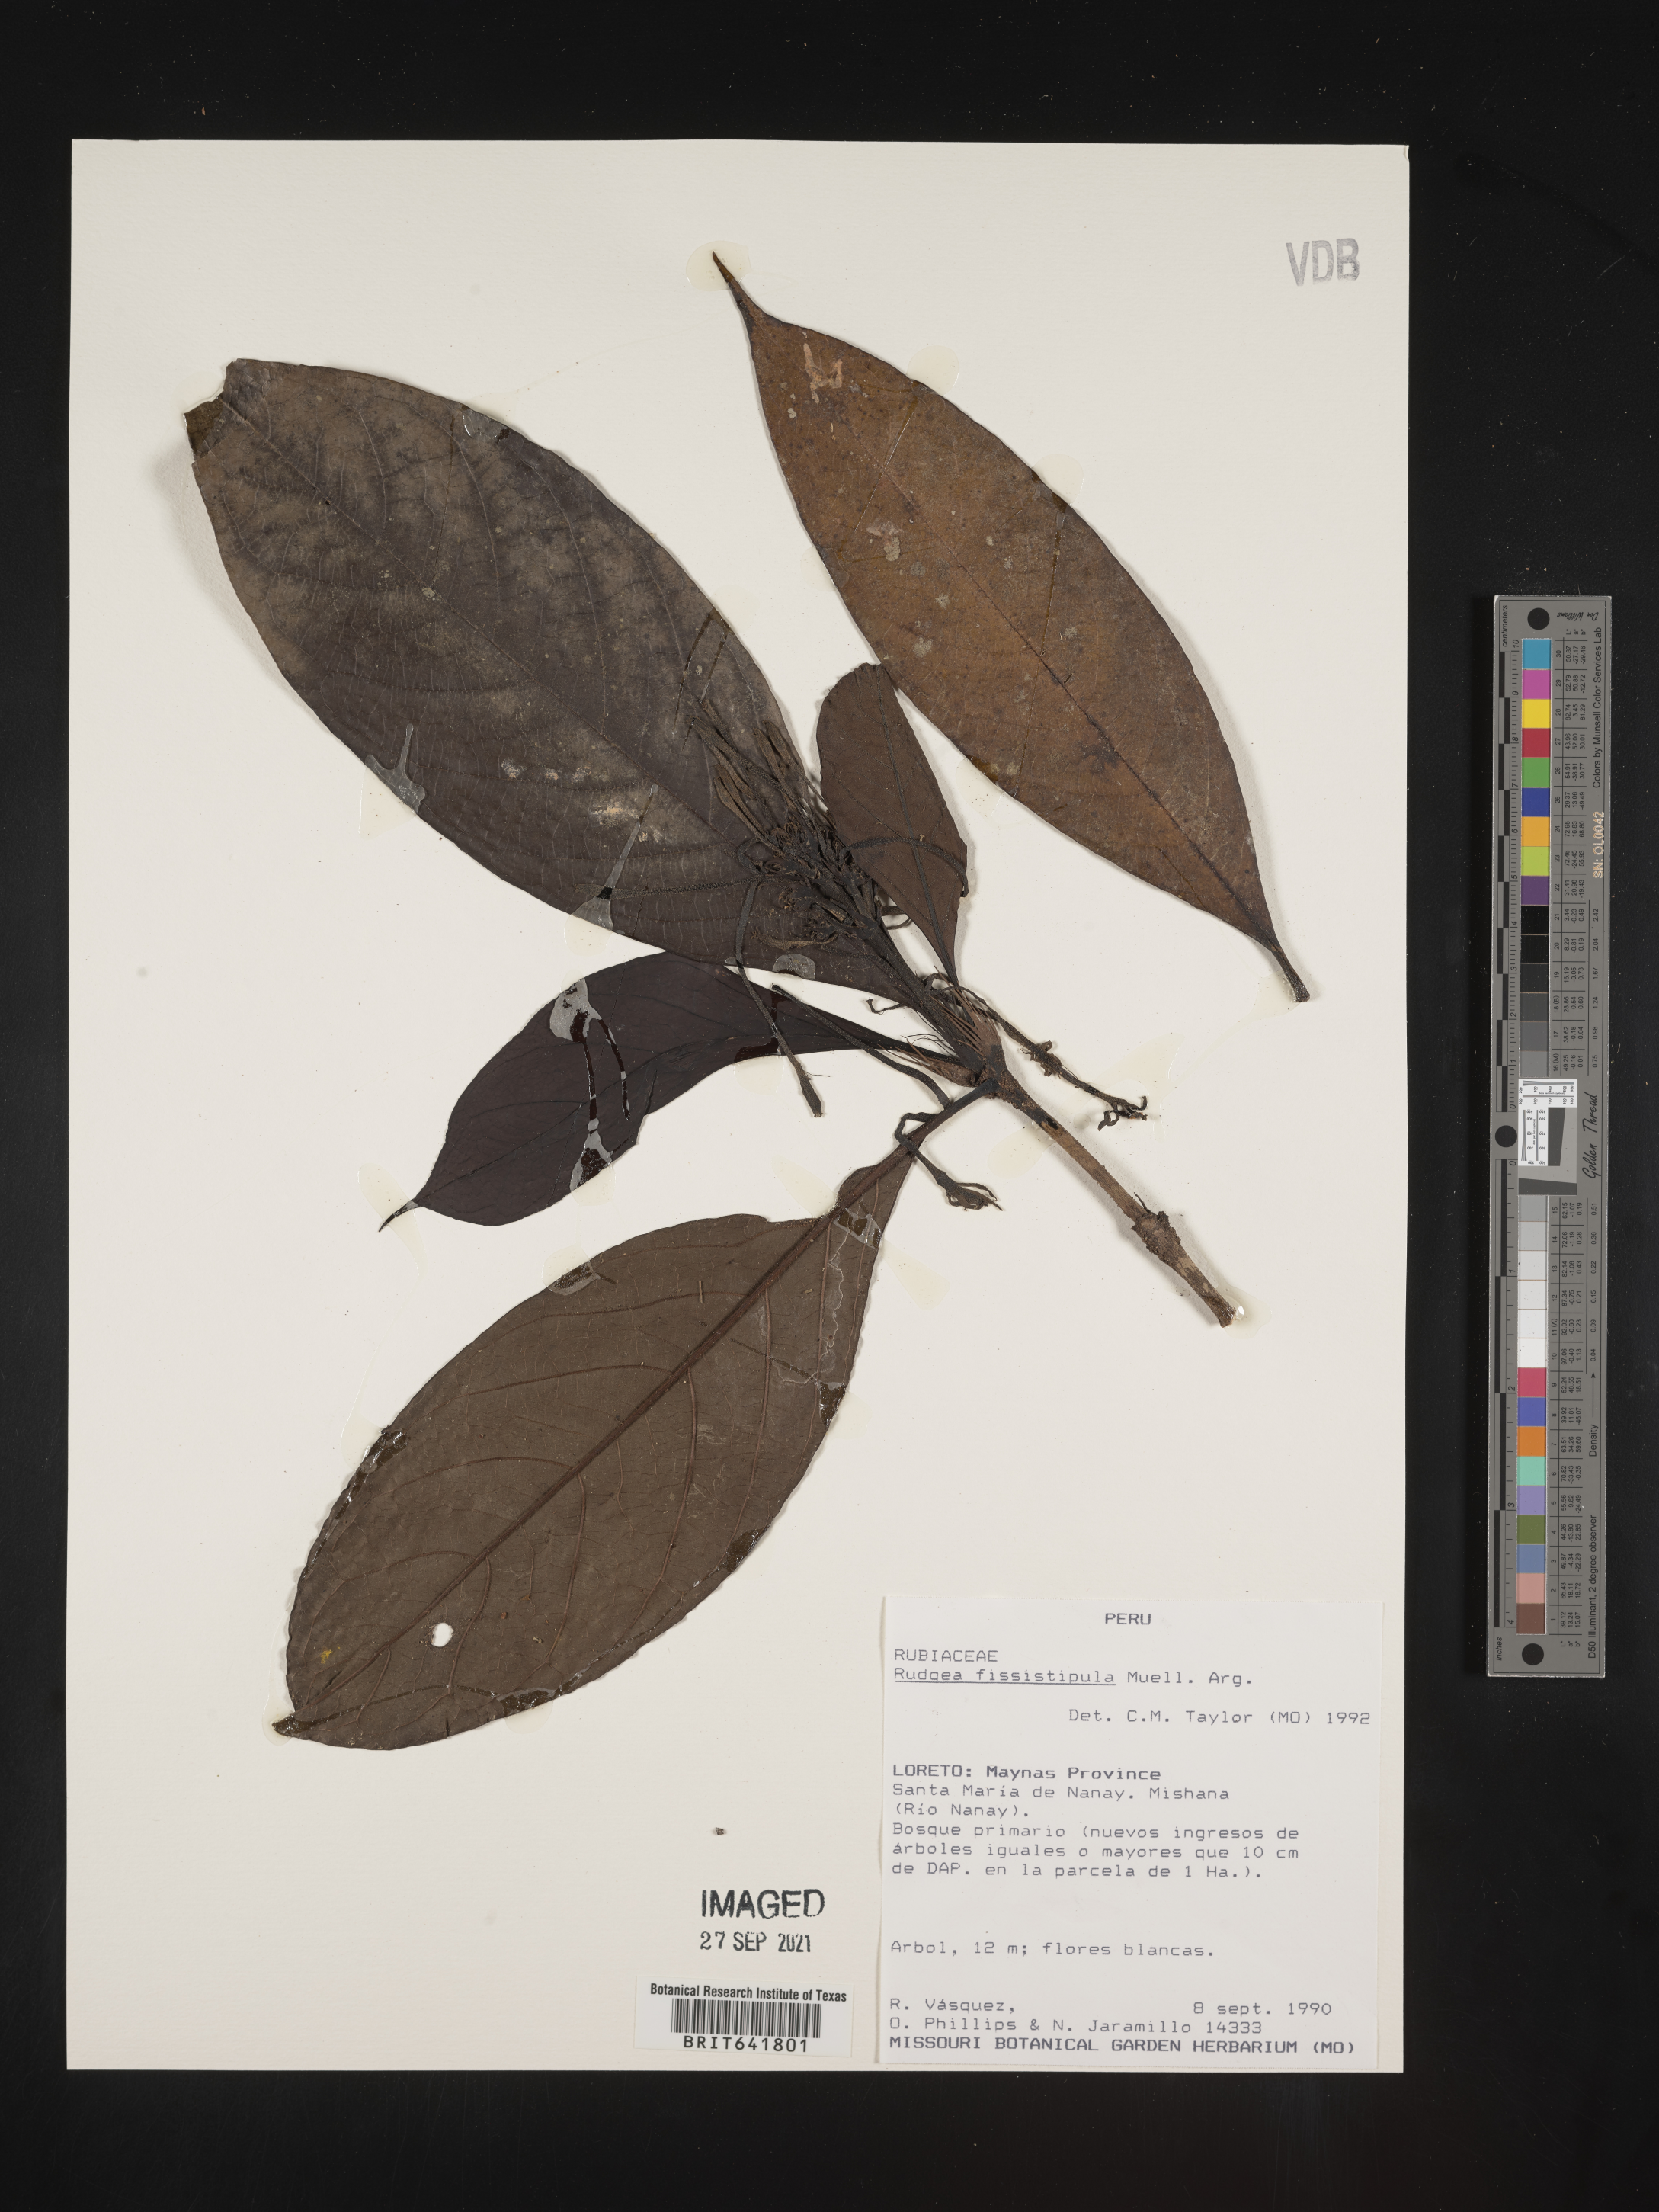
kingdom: Plantae
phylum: Tracheophyta
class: Magnoliopsida
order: Gentianales
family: Rubiaceae
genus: Rudgea
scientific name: Rudgea
